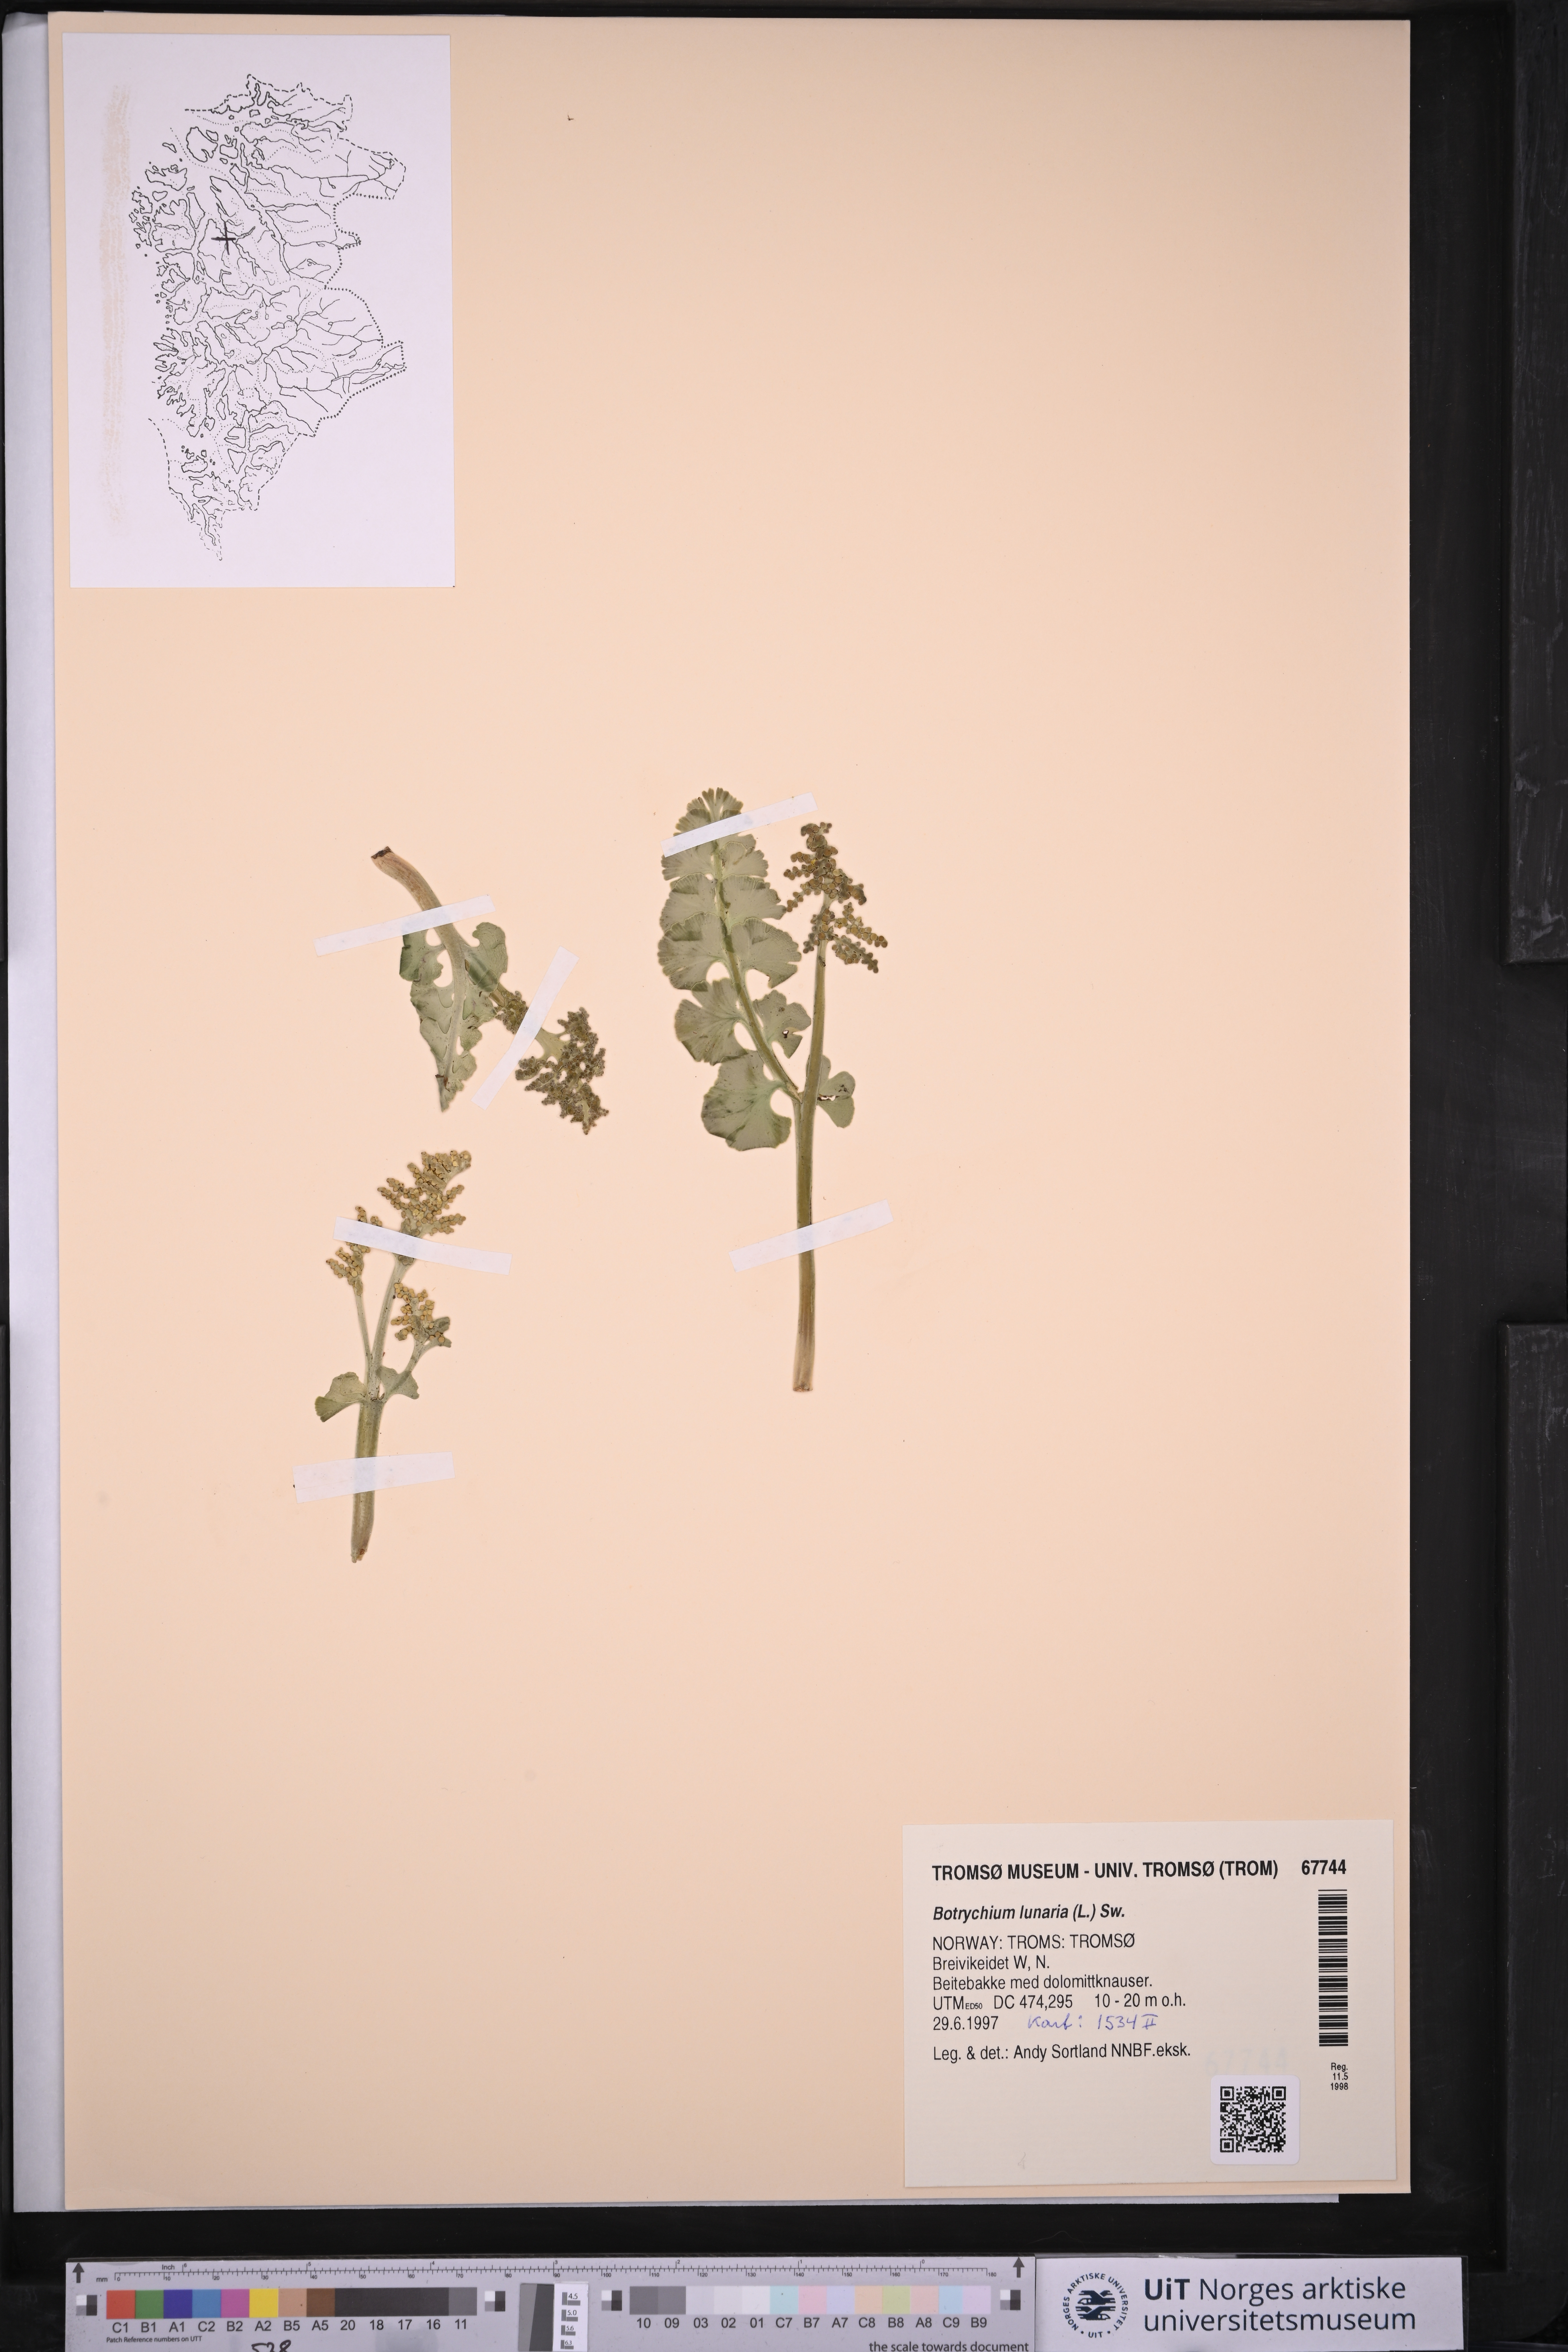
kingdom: Plantae
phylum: Tracheophyta
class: Polypodiopsida
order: Ophioglossales
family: Ophioglossaceae
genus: Botrychium
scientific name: Botrychium lunaria
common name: Moonwort
